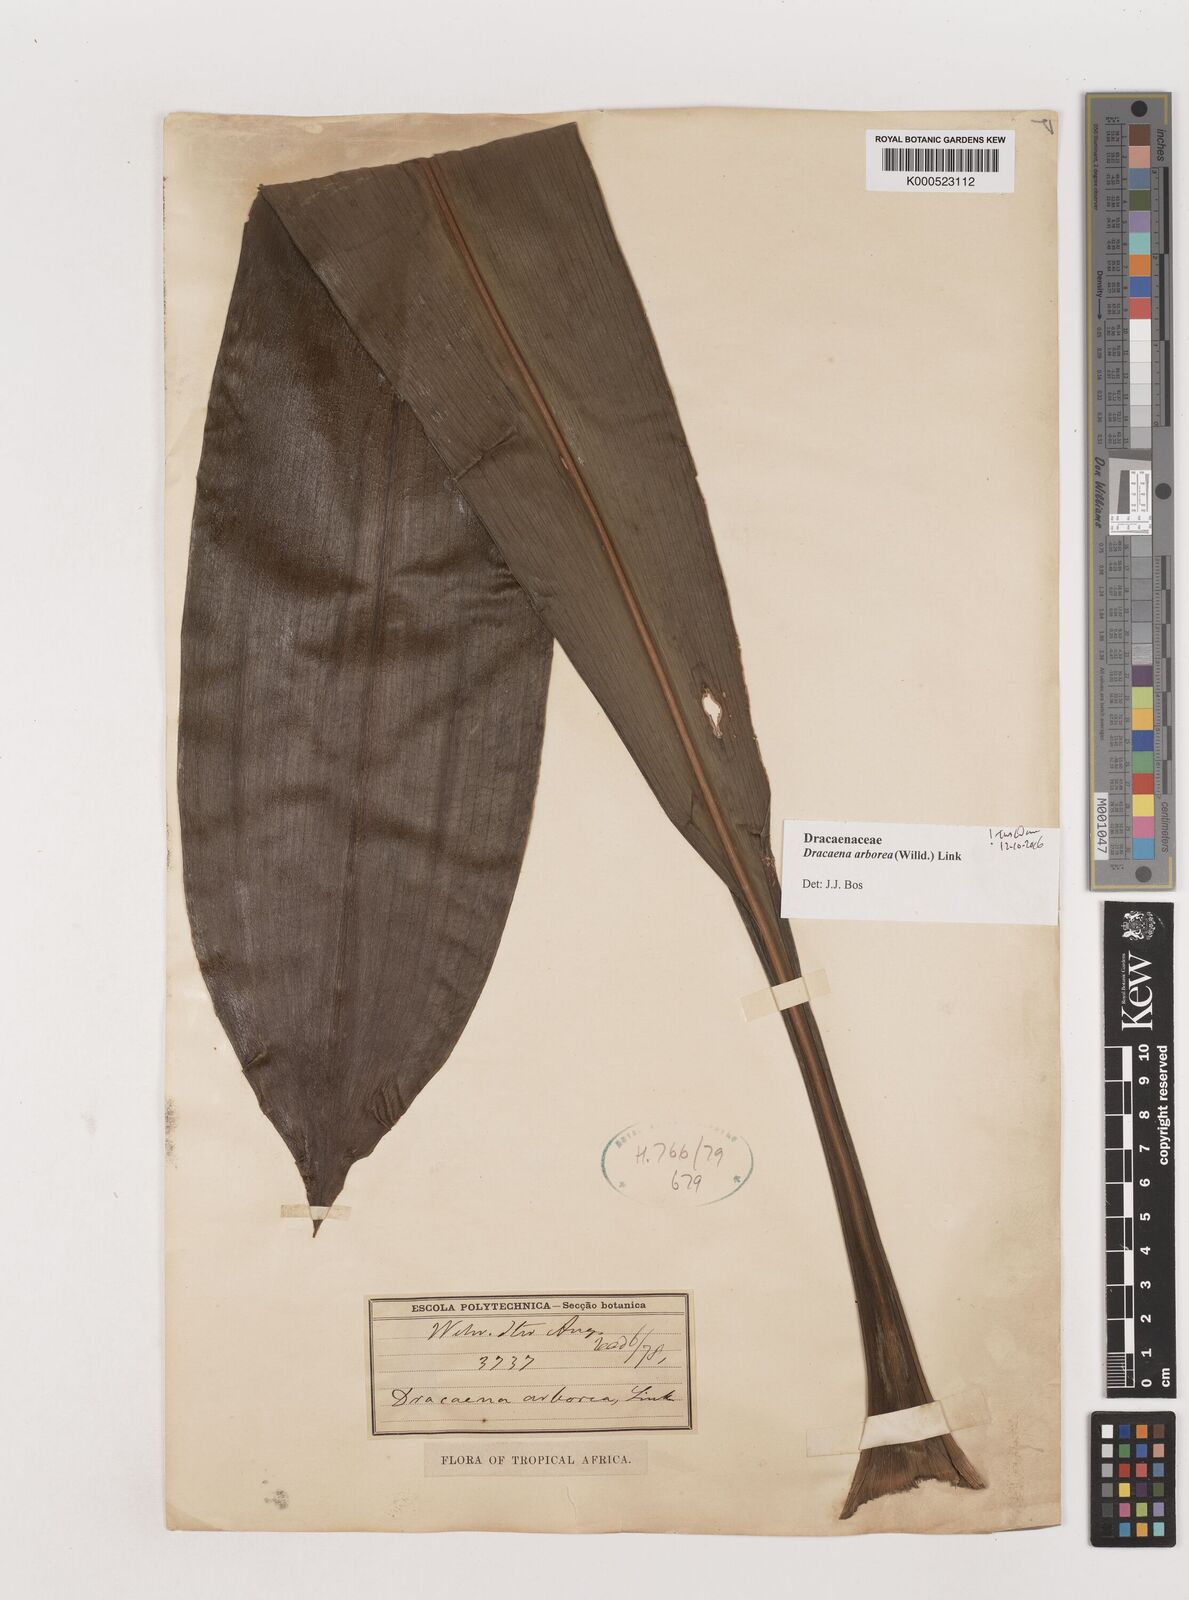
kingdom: Plantae
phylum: Tracheophyta
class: Liliopsida
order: Asparagales
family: Asparagaceae
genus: Dracaena
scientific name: Dracaena arborea
